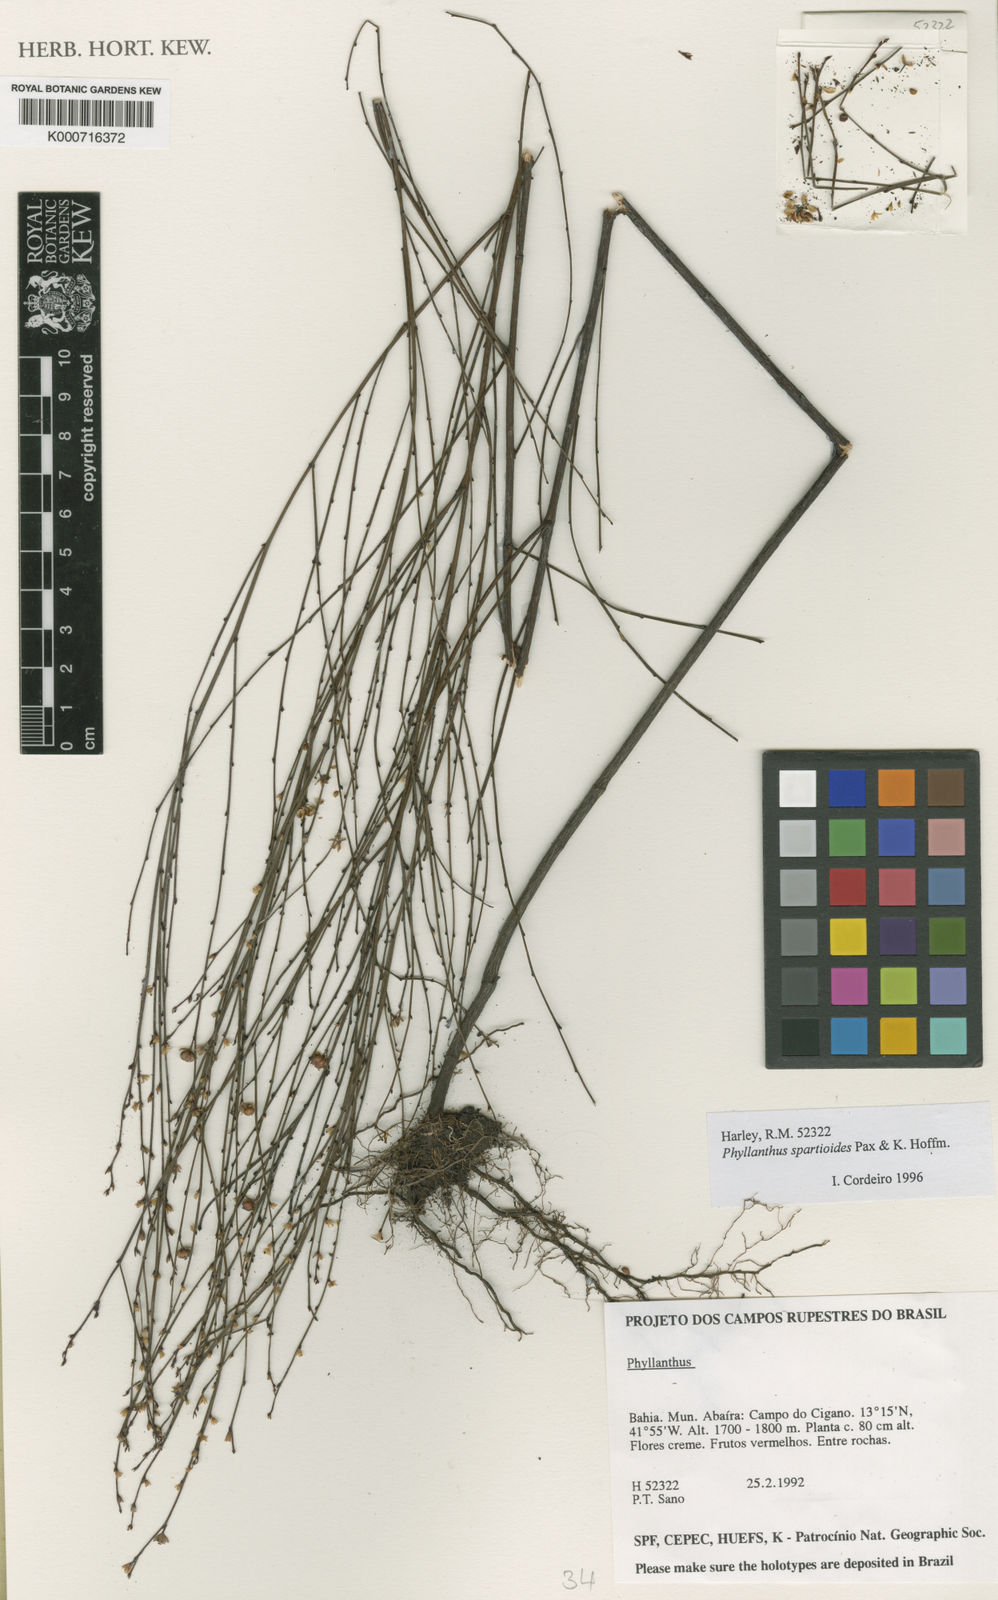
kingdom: Plantae
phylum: Tracheophyta
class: Magnoliopsida
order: Malpighiales
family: Phyllanthaceae
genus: Phyllanthus
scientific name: Phyllanthus spartioides
